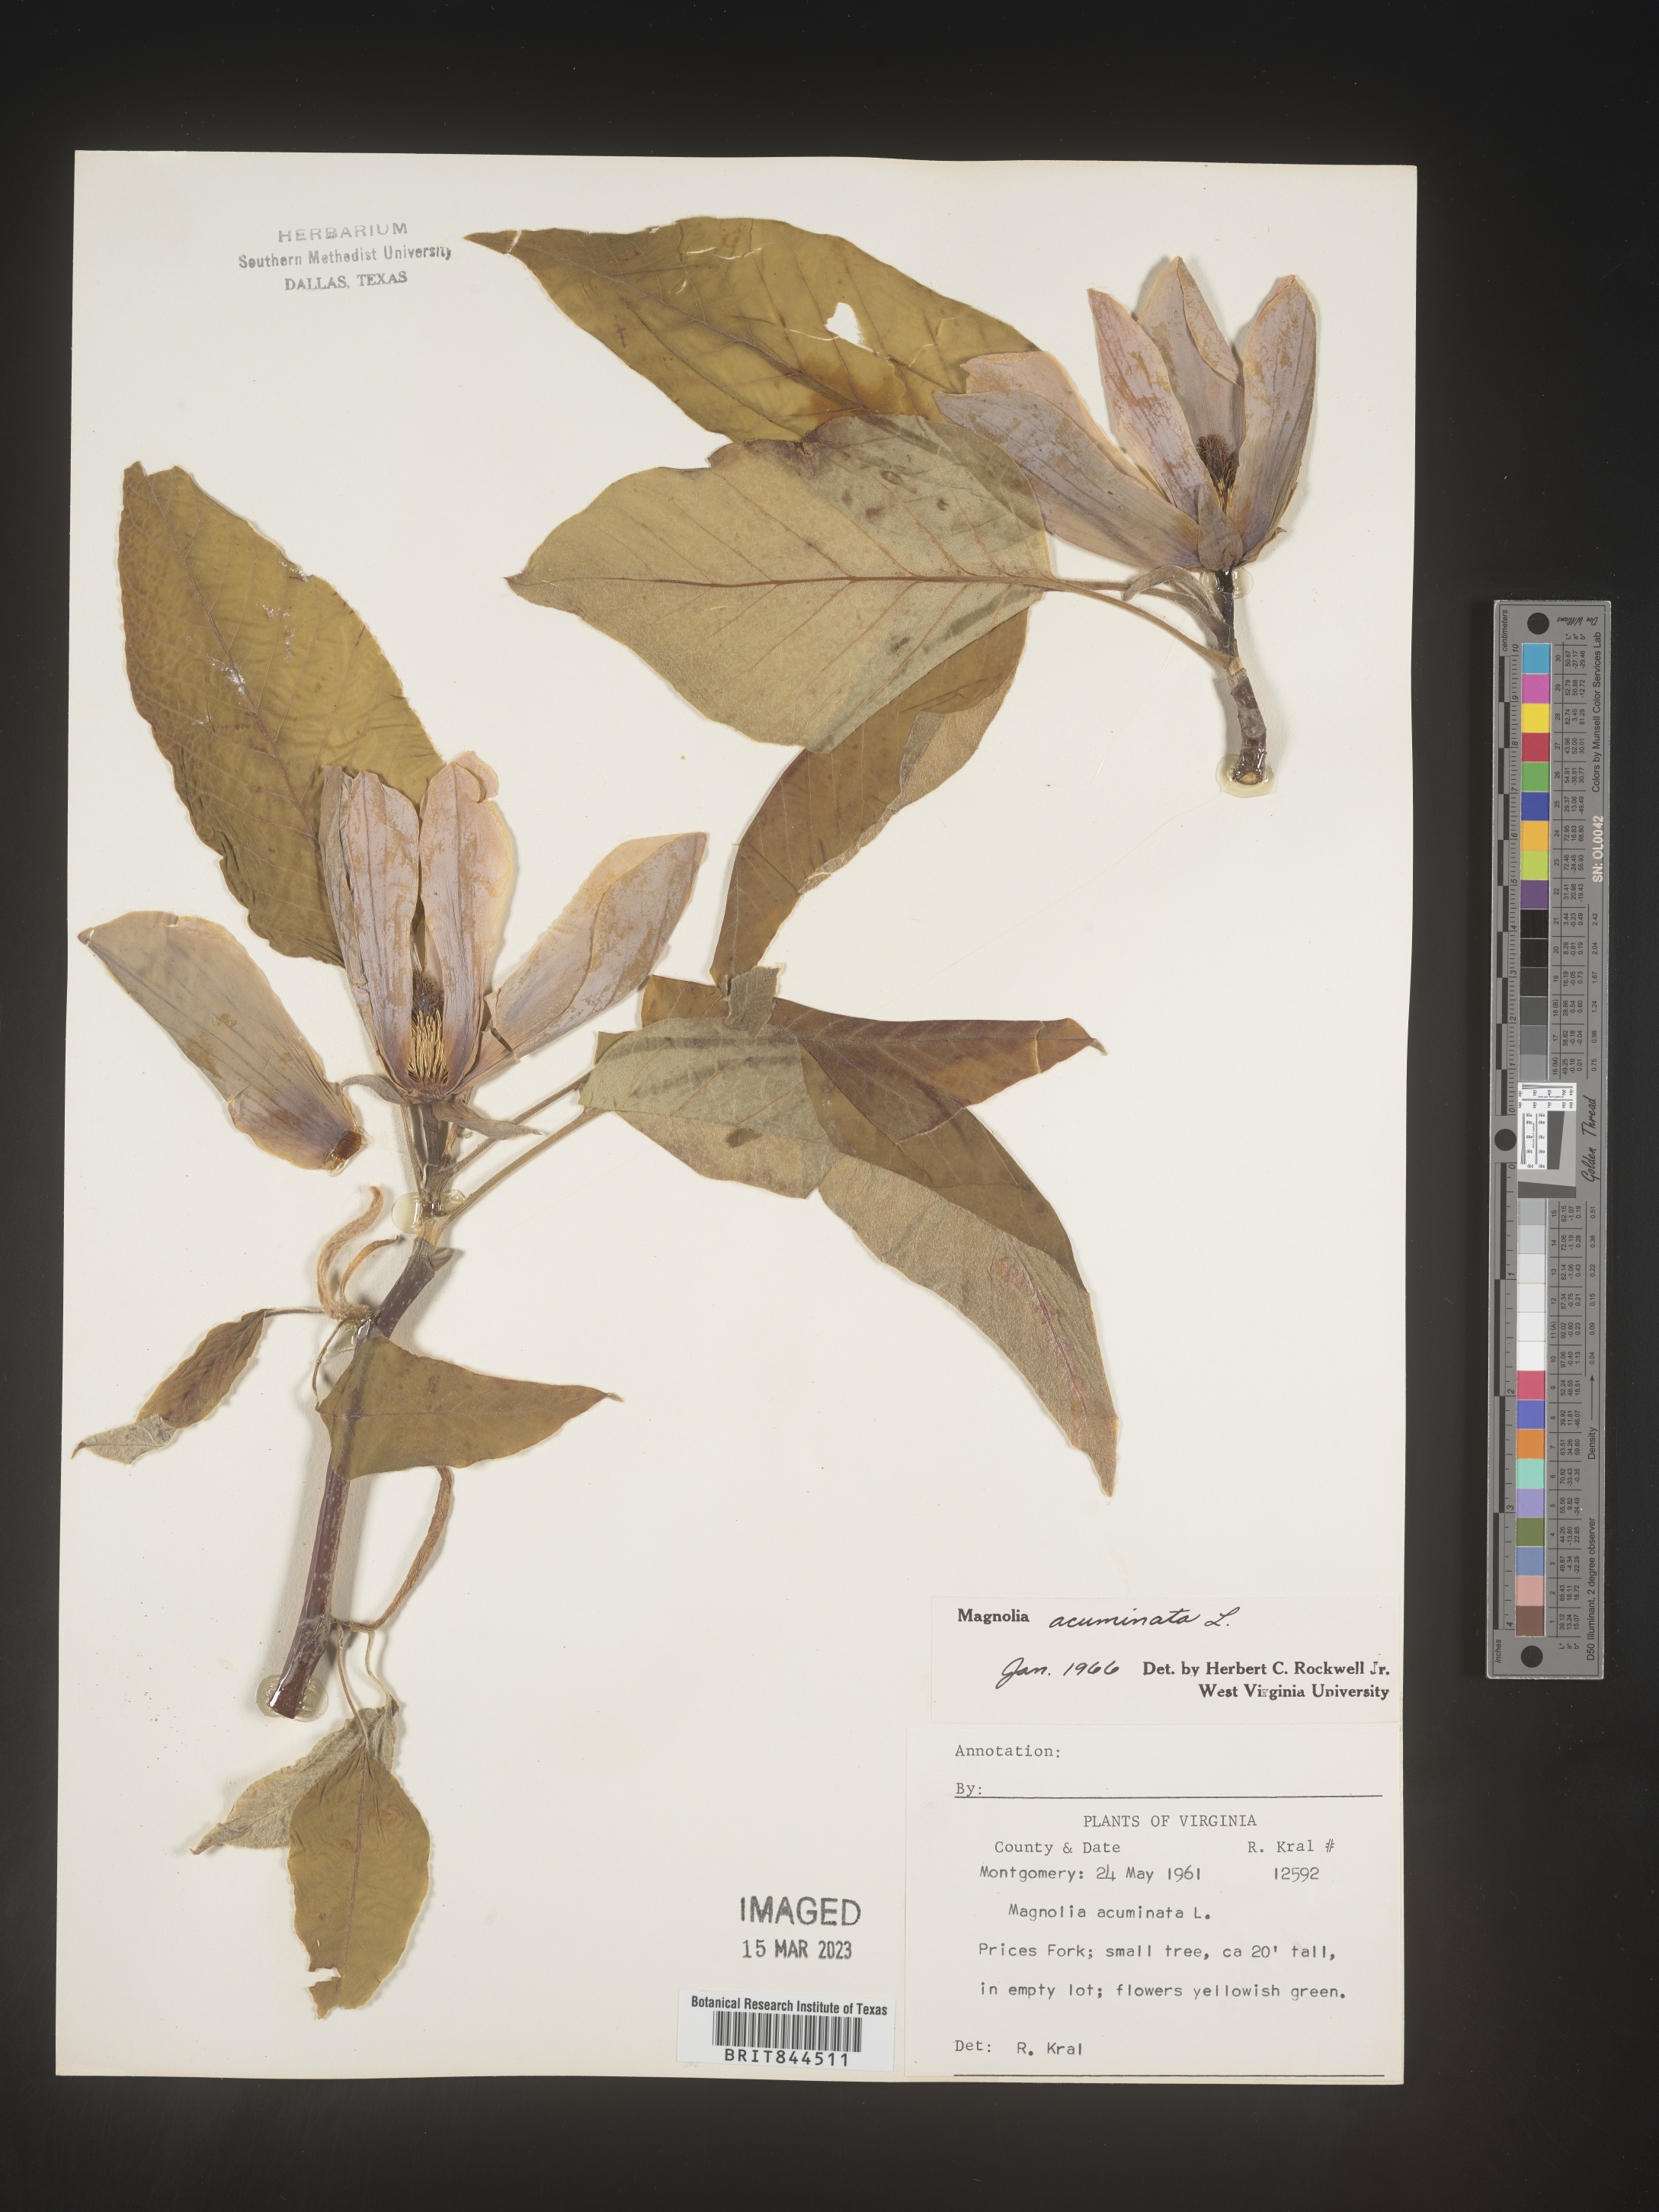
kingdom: Plantae
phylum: Tracheophyta
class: Magnoliopsida
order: Magnoliales
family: Magnoliaceae
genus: Magnolia
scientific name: Magnolia acuminata
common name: Cucumber magnolia
